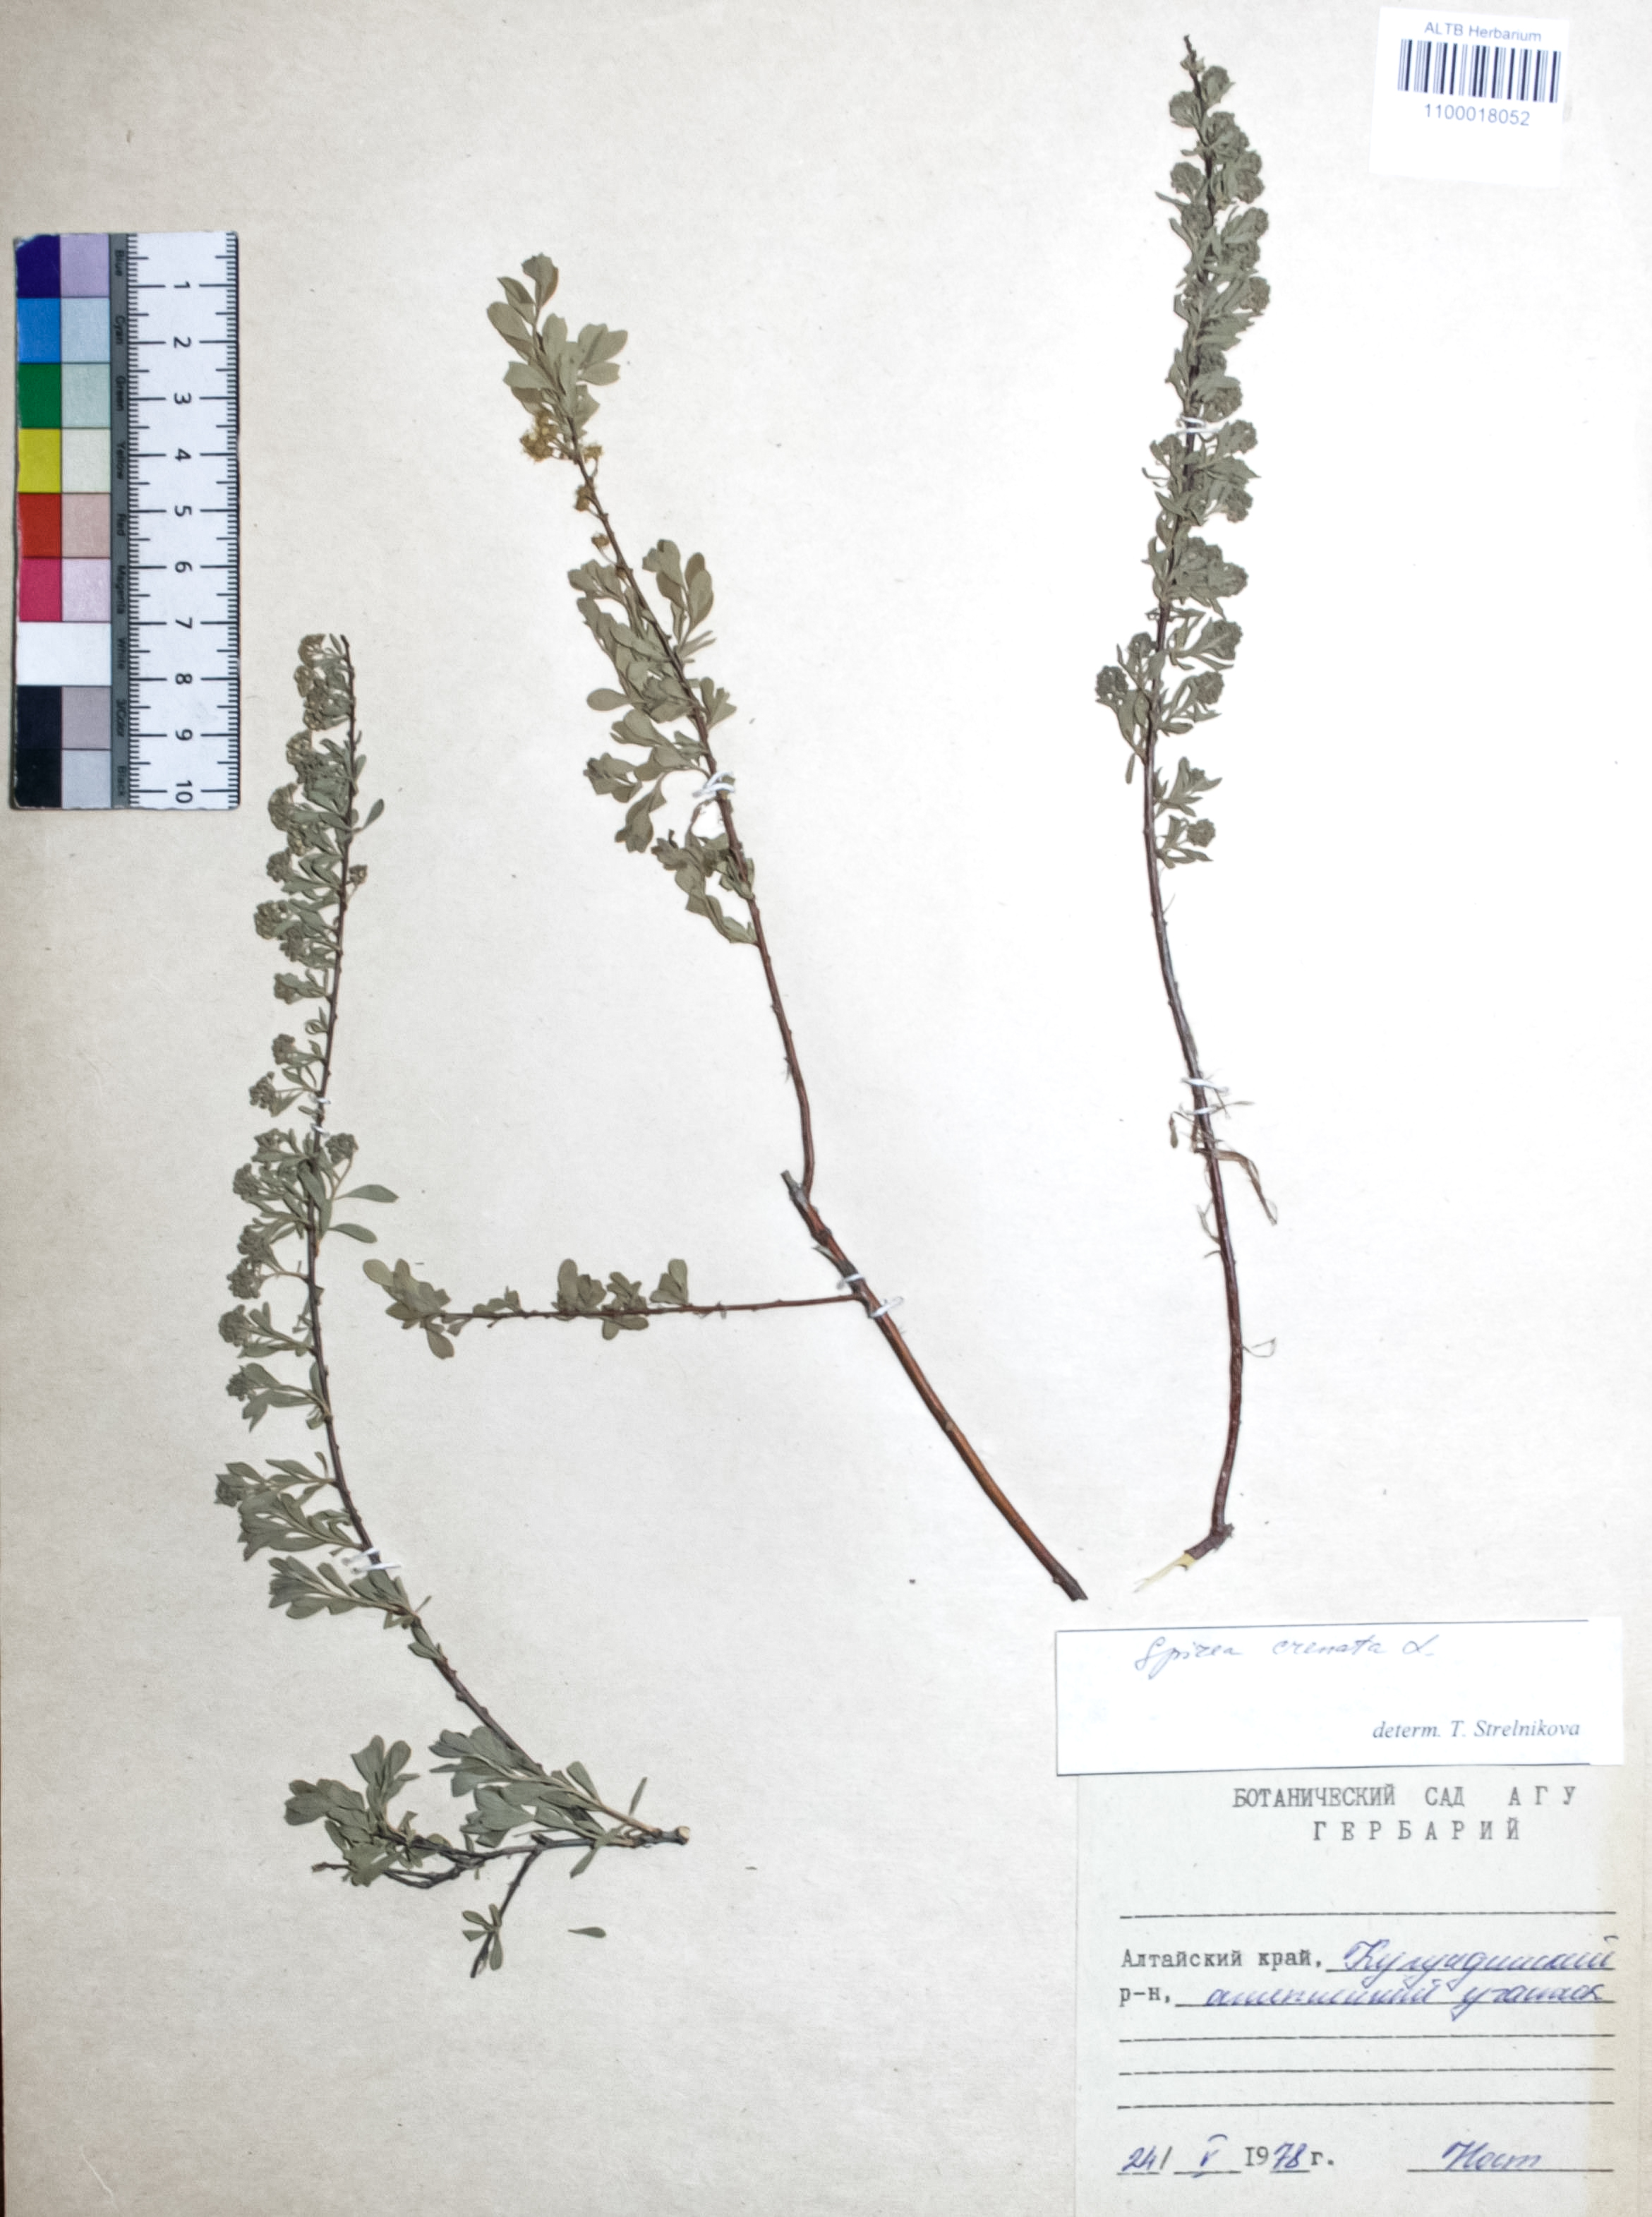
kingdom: Plantae
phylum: Tracheophyta
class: Magnoliopsida
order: Rosales
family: Rosaceae
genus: Spiraea
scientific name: Spiraea crenata
